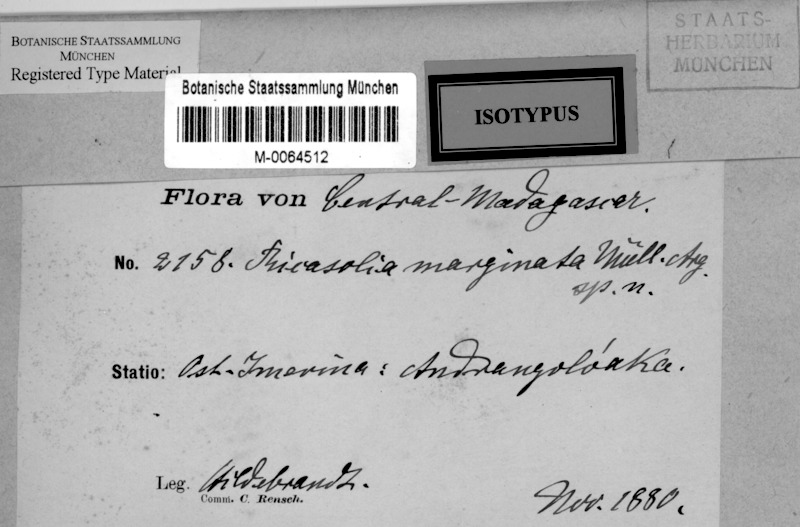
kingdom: Fungi
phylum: Ascomycota
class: Lecanoromycetes
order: Peltigerales
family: Lobariaceae
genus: Lobaria
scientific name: Lobaria
